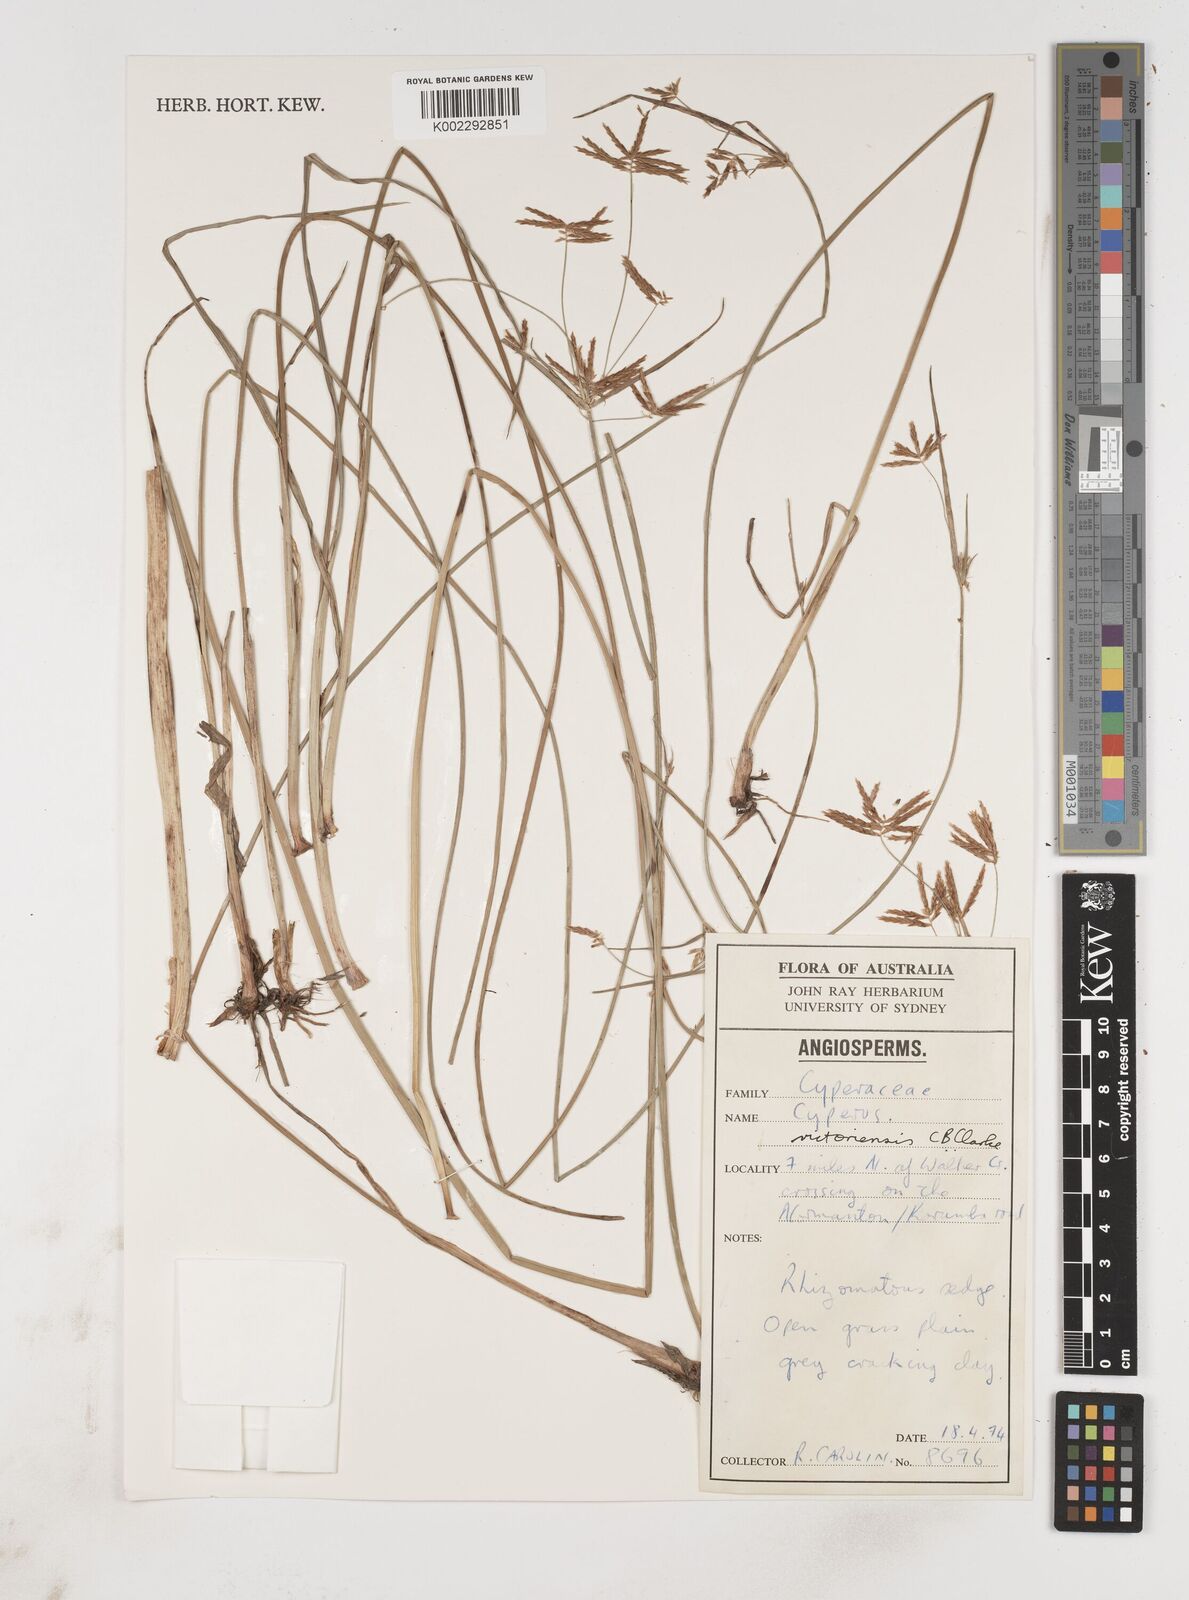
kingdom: Plantae
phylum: Tracheophyta
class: Liliopsida
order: Poales
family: Cyperaceae
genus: Cyperus
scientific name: Cyperus victoriensis
